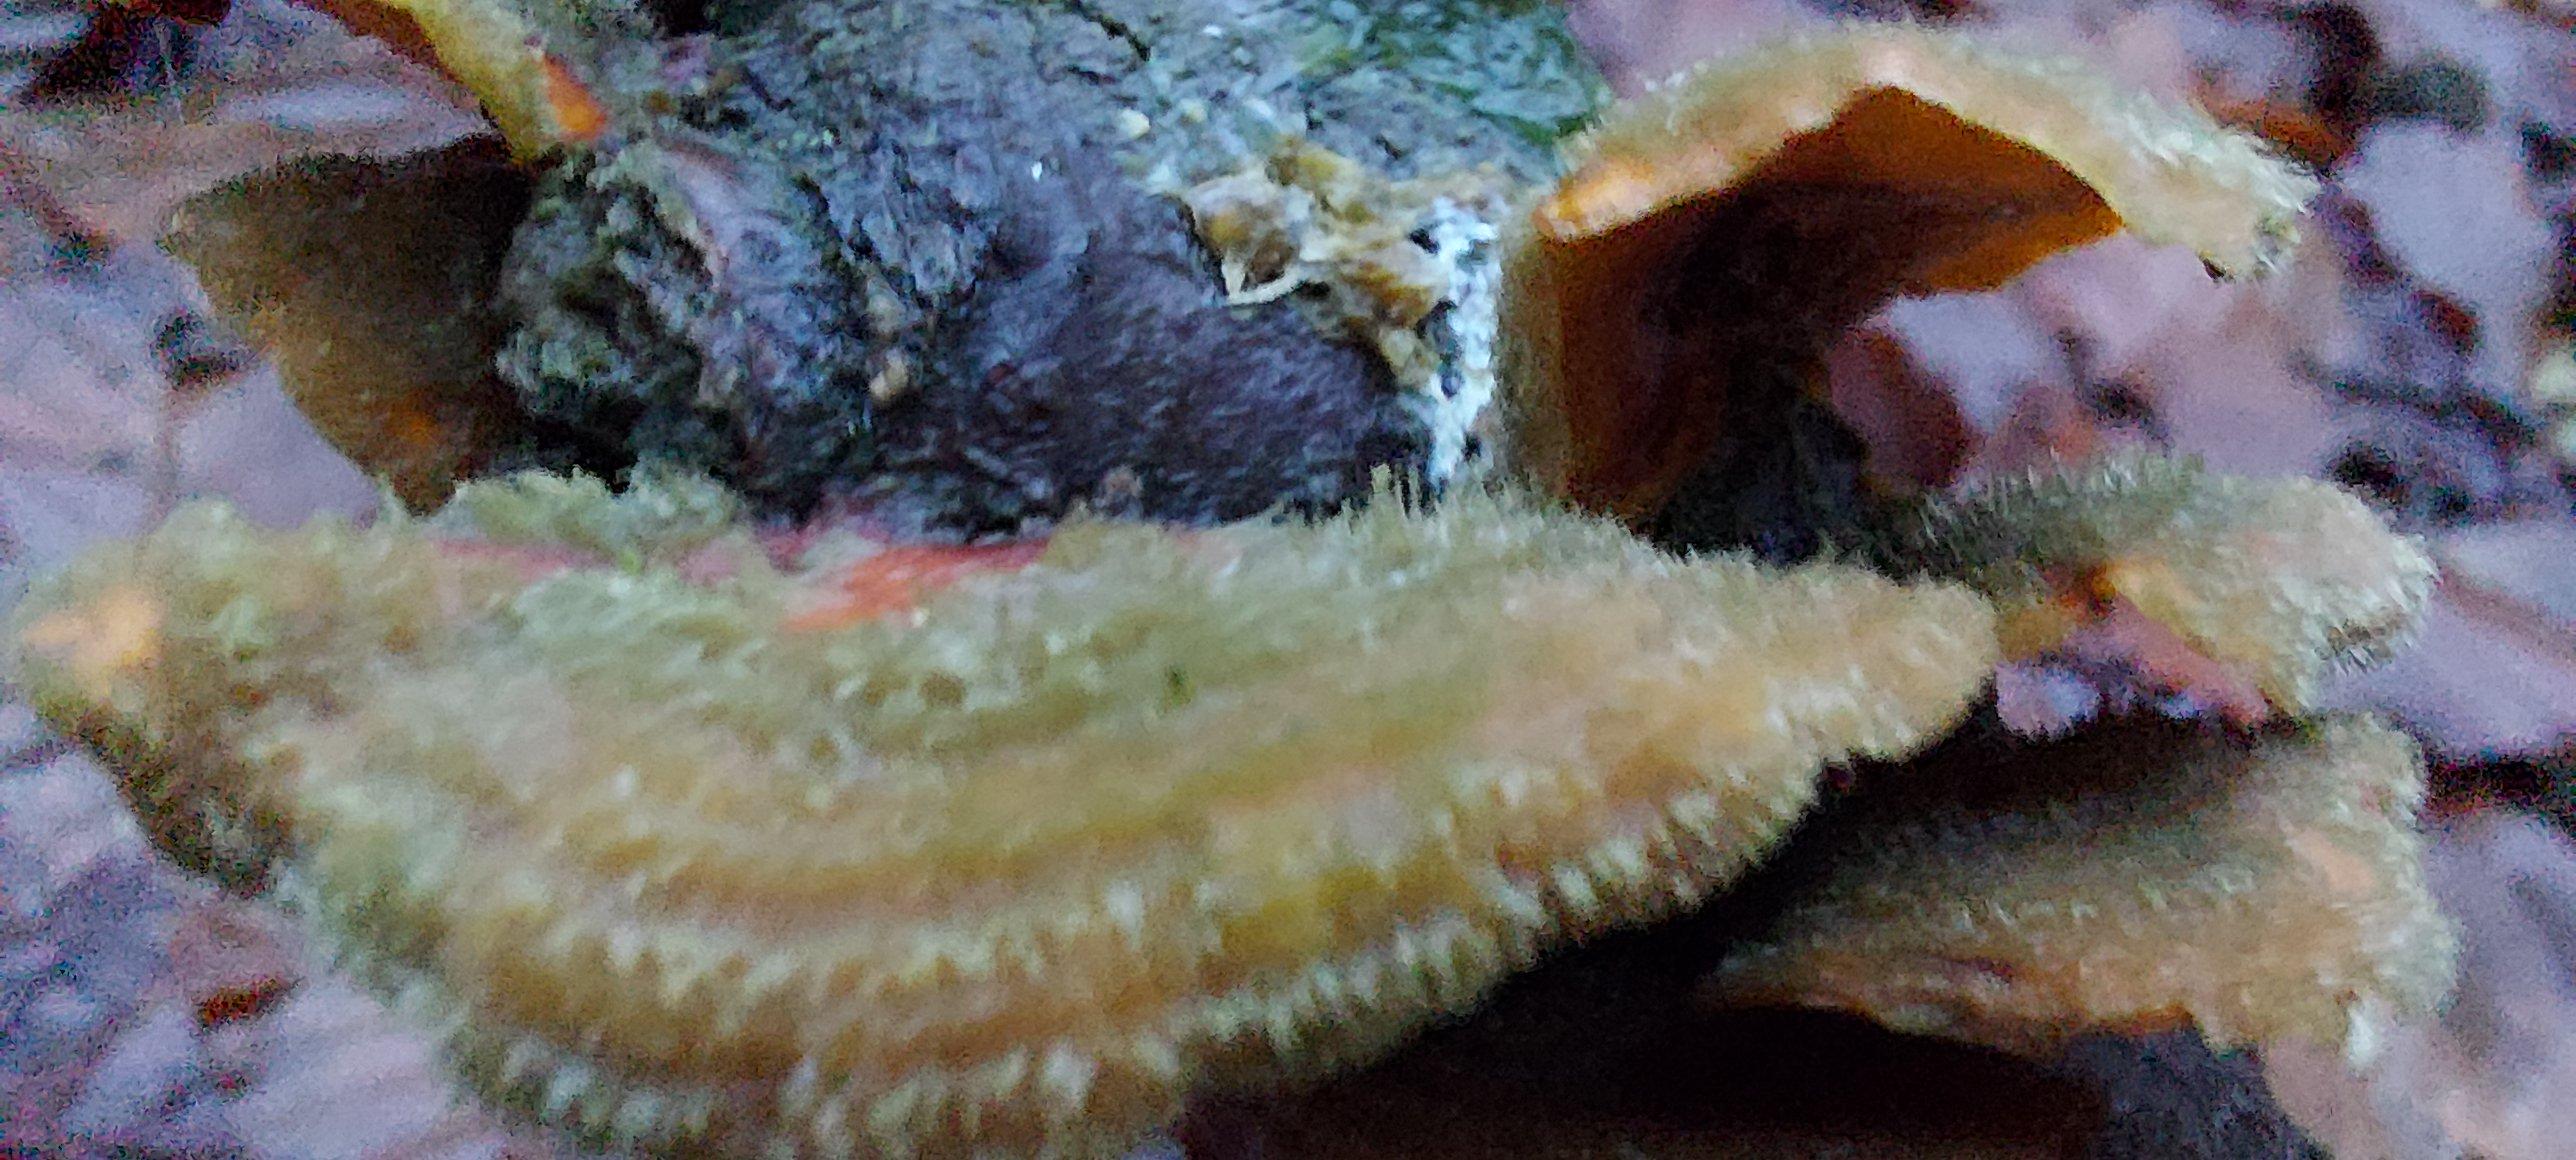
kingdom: Fungi
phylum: Basidiomycota
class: Agaricomycetes
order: Russulales
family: Stereaceae
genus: Stereum
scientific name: Stereum hirsutum
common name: håret lædersvamp
